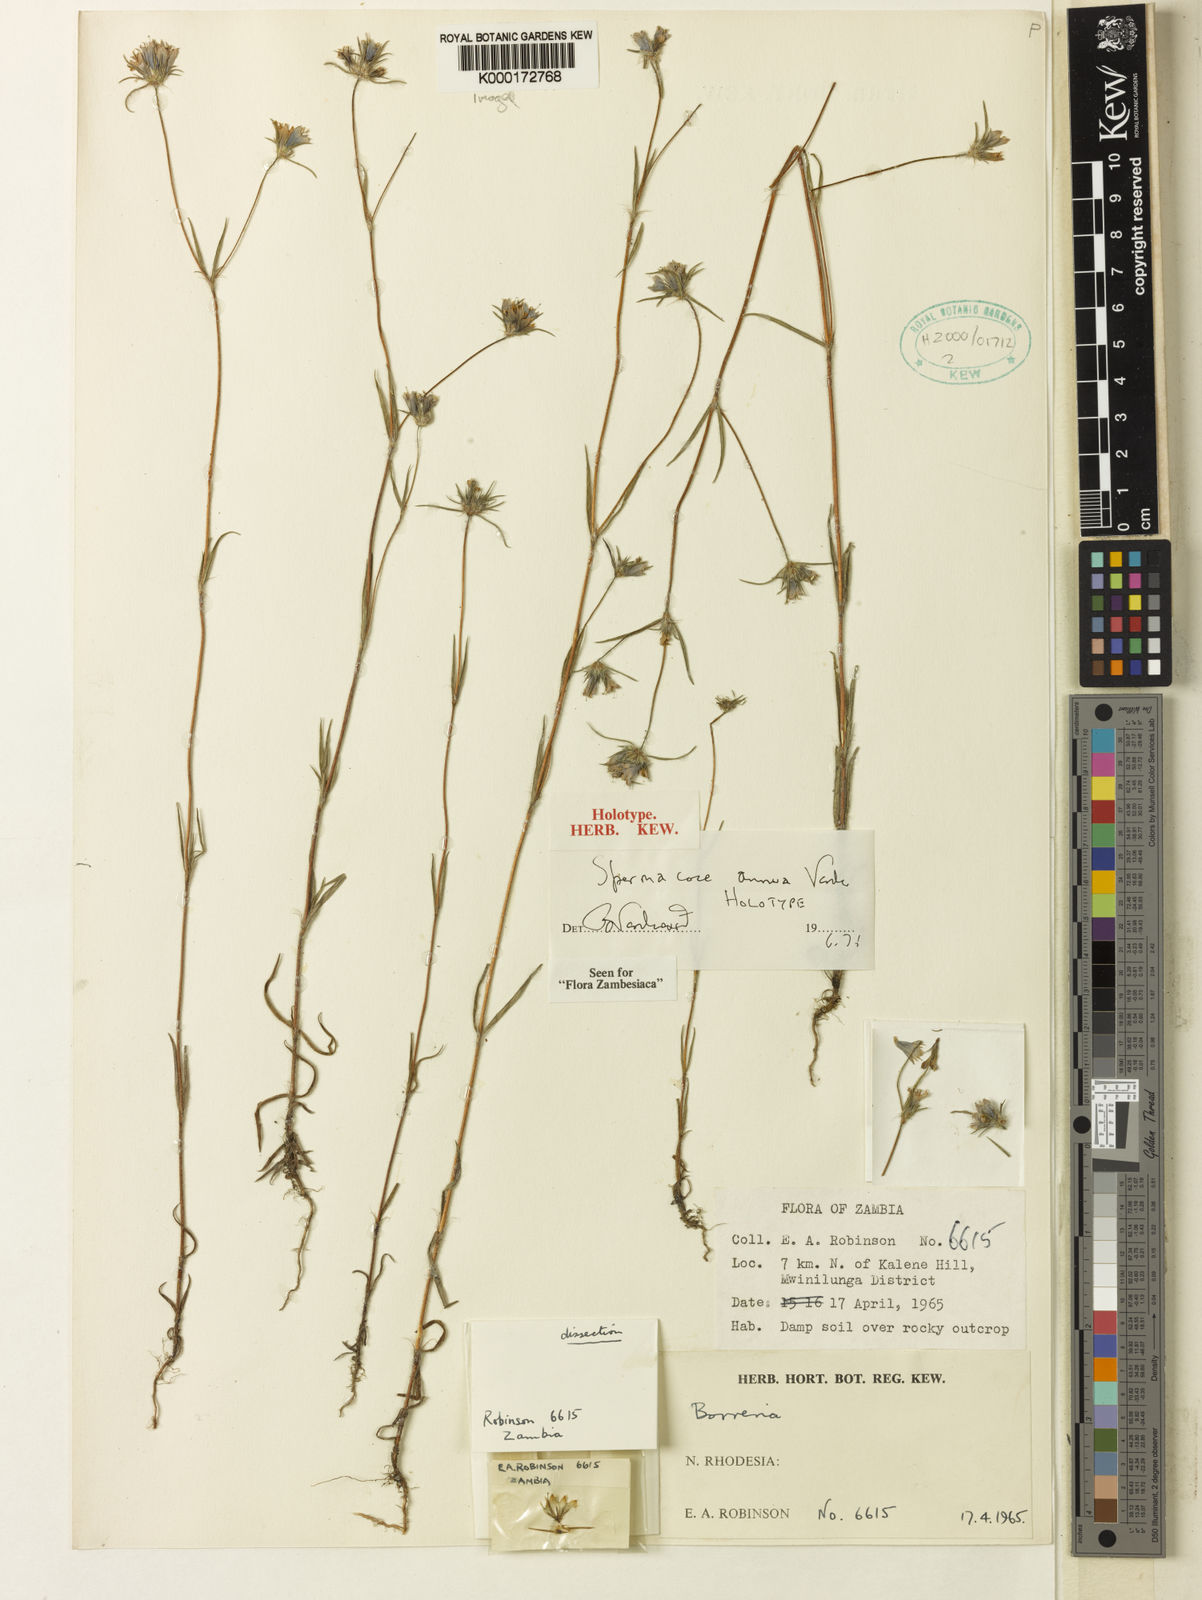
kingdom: Plantae
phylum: Tracheophyta
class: Magnoliopsida
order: Gentianales
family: Rubiaceae
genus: Spermacoce
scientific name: Spermacoce annua
